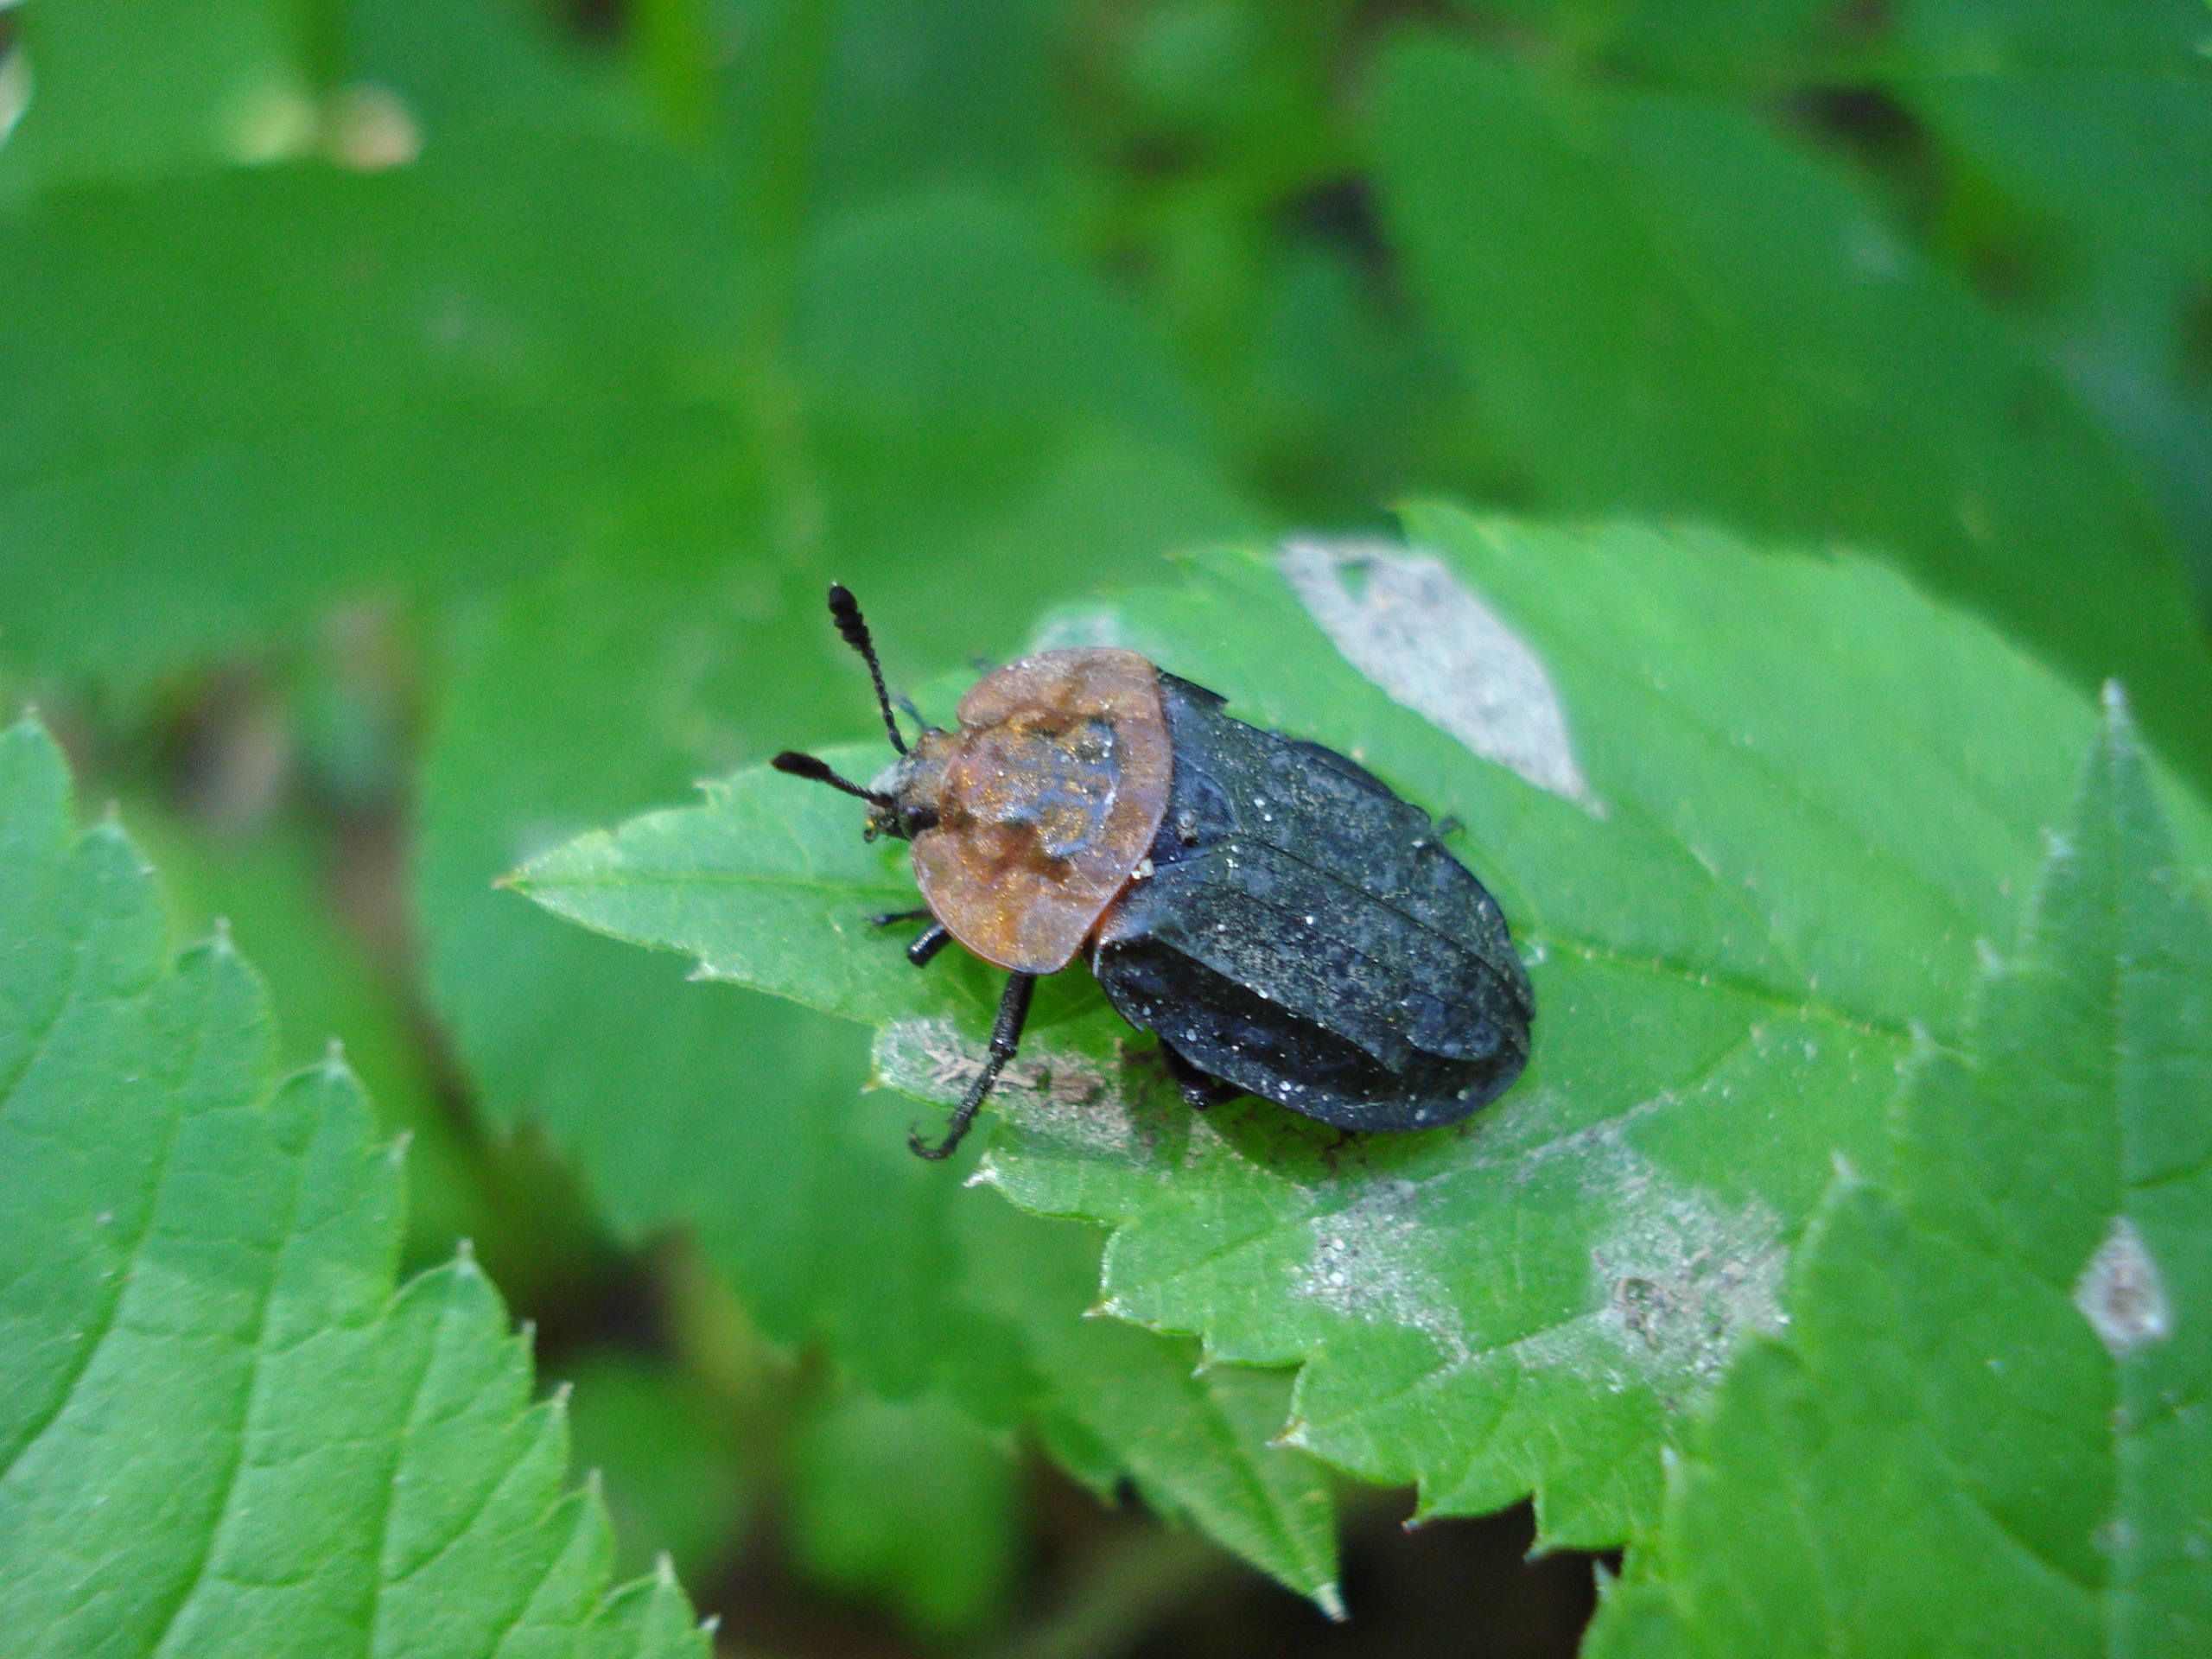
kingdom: Animalia
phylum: Arthropoda
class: Insecta
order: Coleoptera
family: Staphylinidae
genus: Oiceoptoma
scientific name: Oiceoptoma thoracicum
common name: Rødbrystet ådselbille
